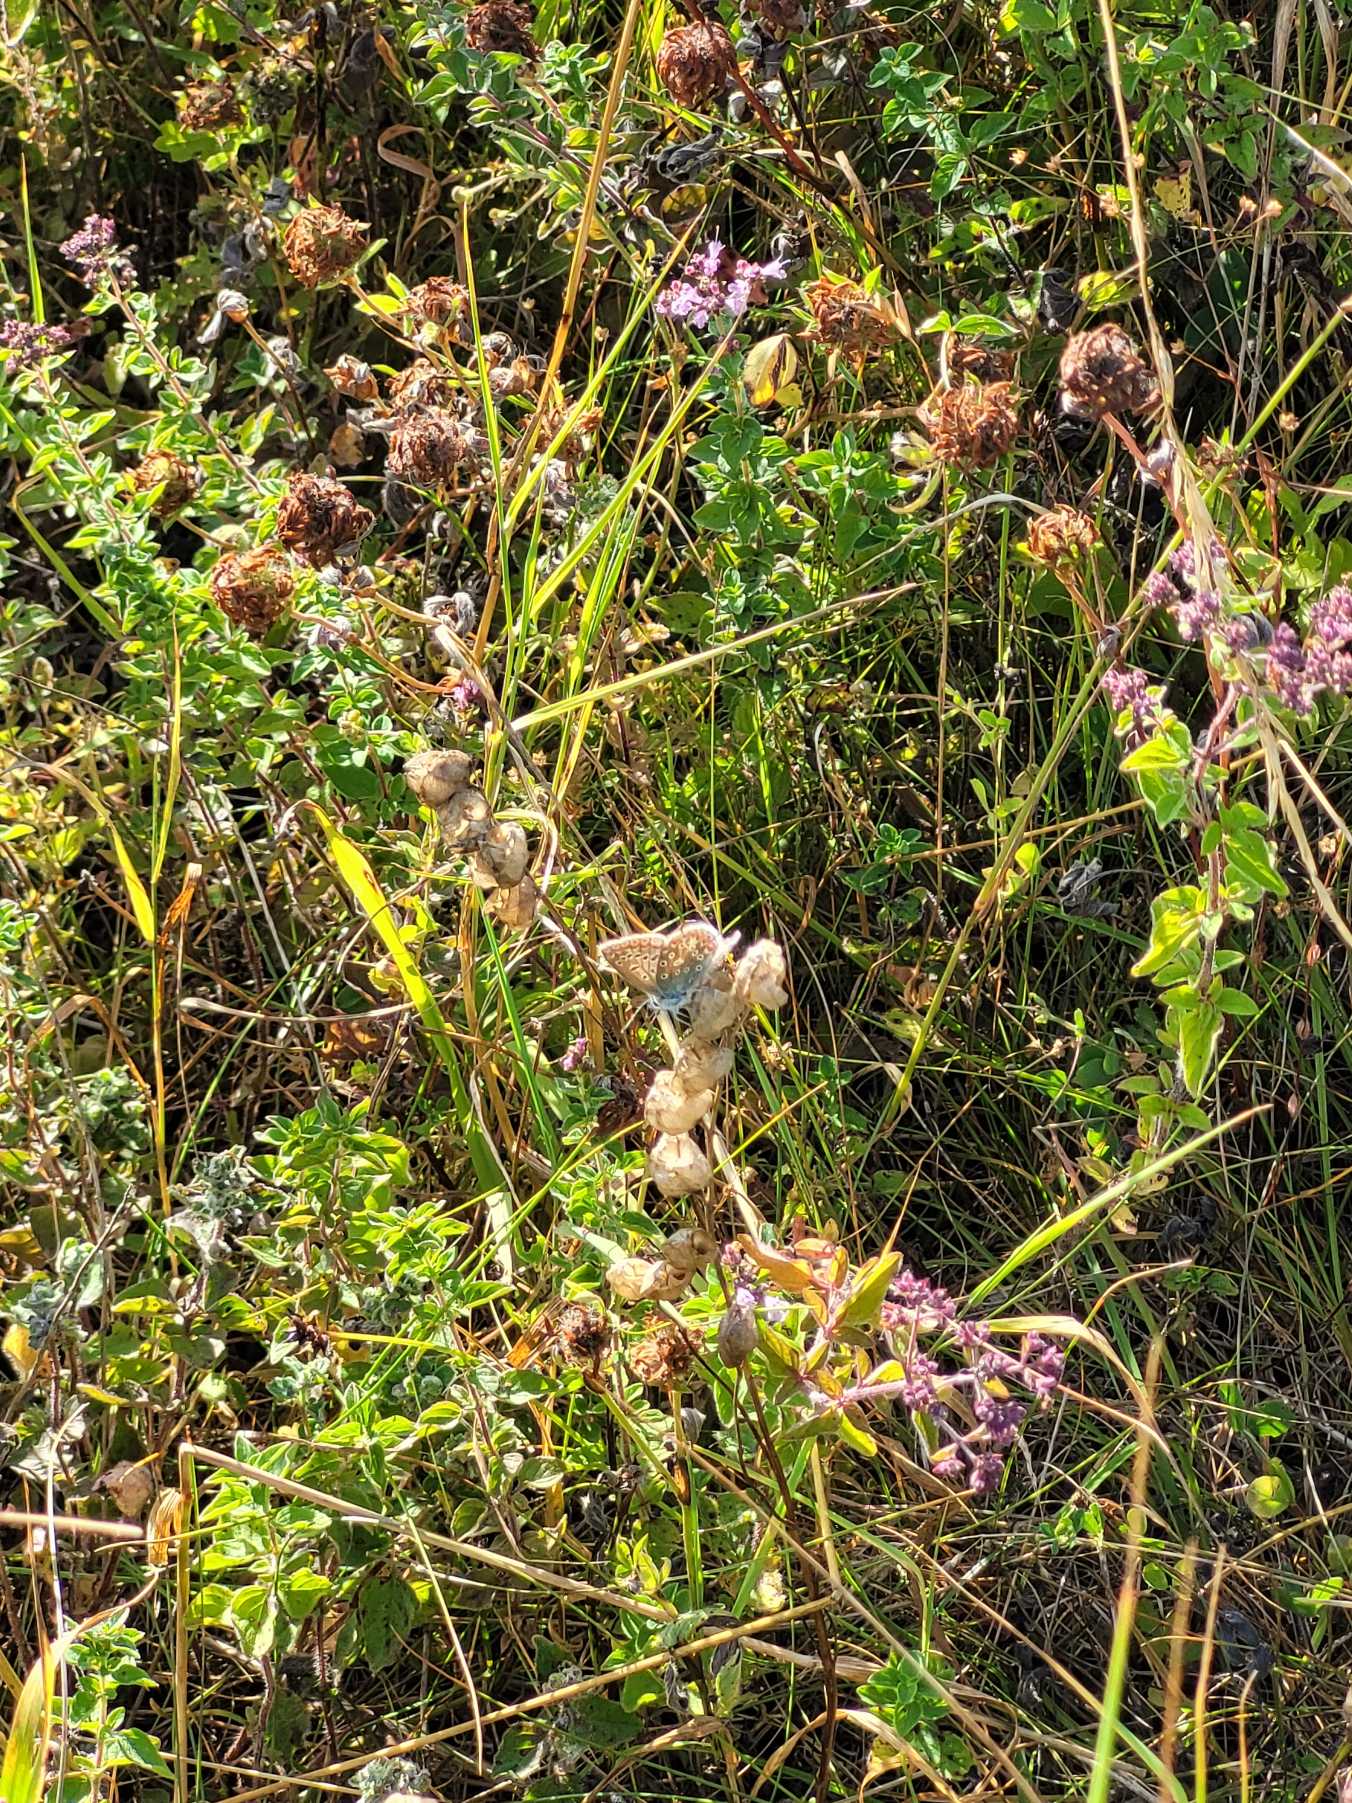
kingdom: Animalia
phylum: Arthropoda
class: Insecta
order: Lepidoptera
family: Lycaenidae
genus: Polyommatus
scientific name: Polyommatus icarus
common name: Almindelig blåfugl
